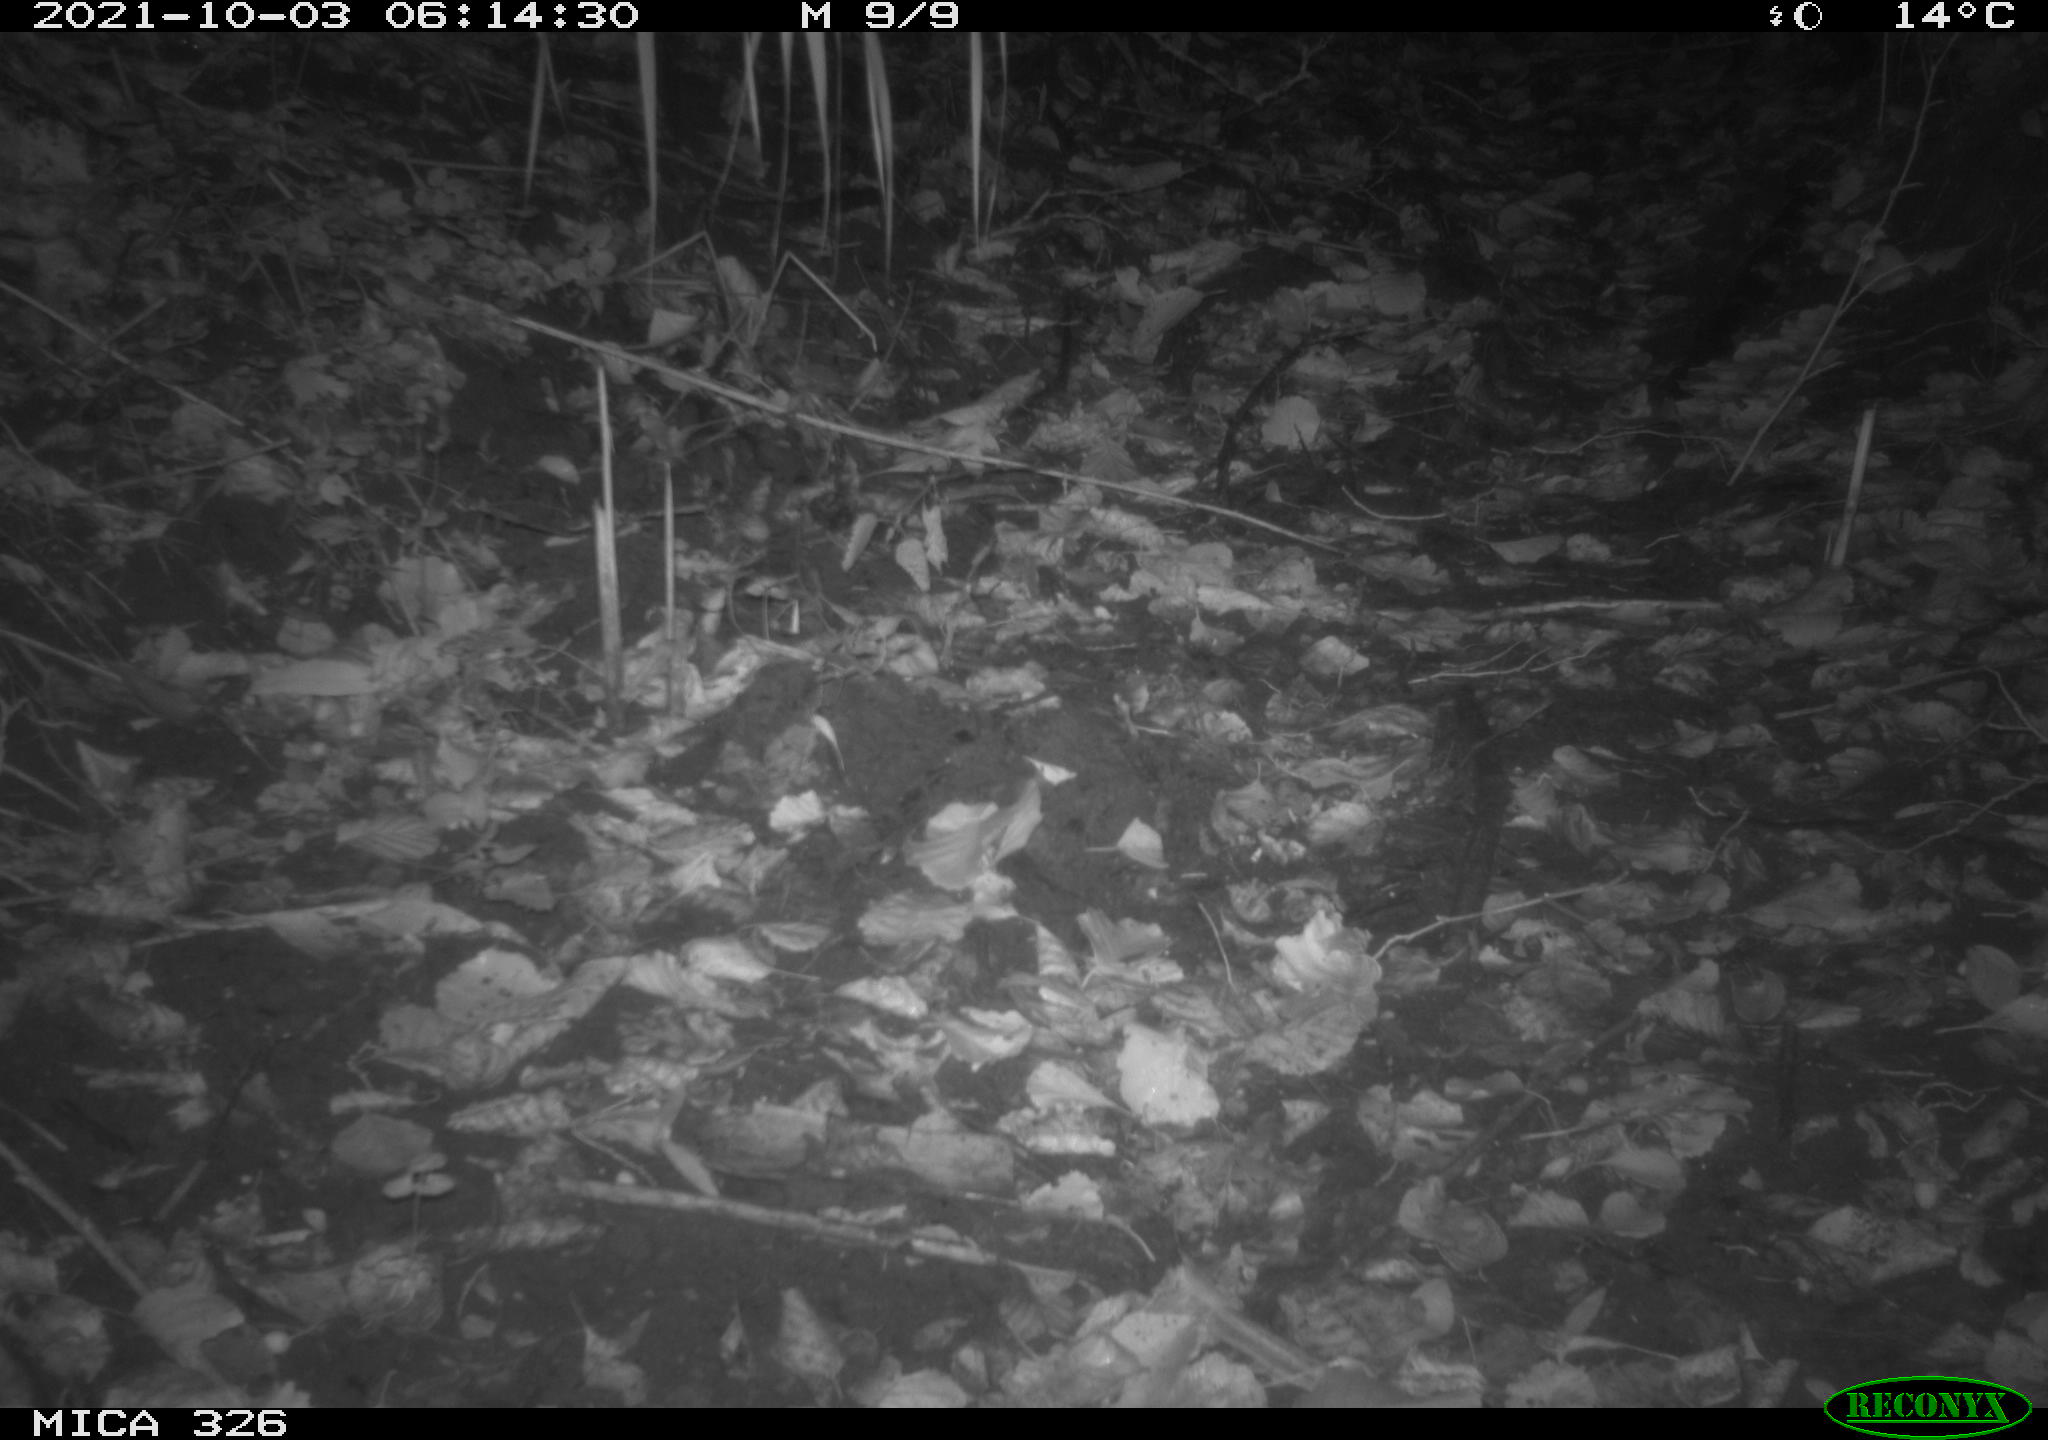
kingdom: Animalia
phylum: Chordata
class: Mammalia
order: Rodentia
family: Muridae
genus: Rattus
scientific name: Rattus norvegicus
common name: Brown rat
